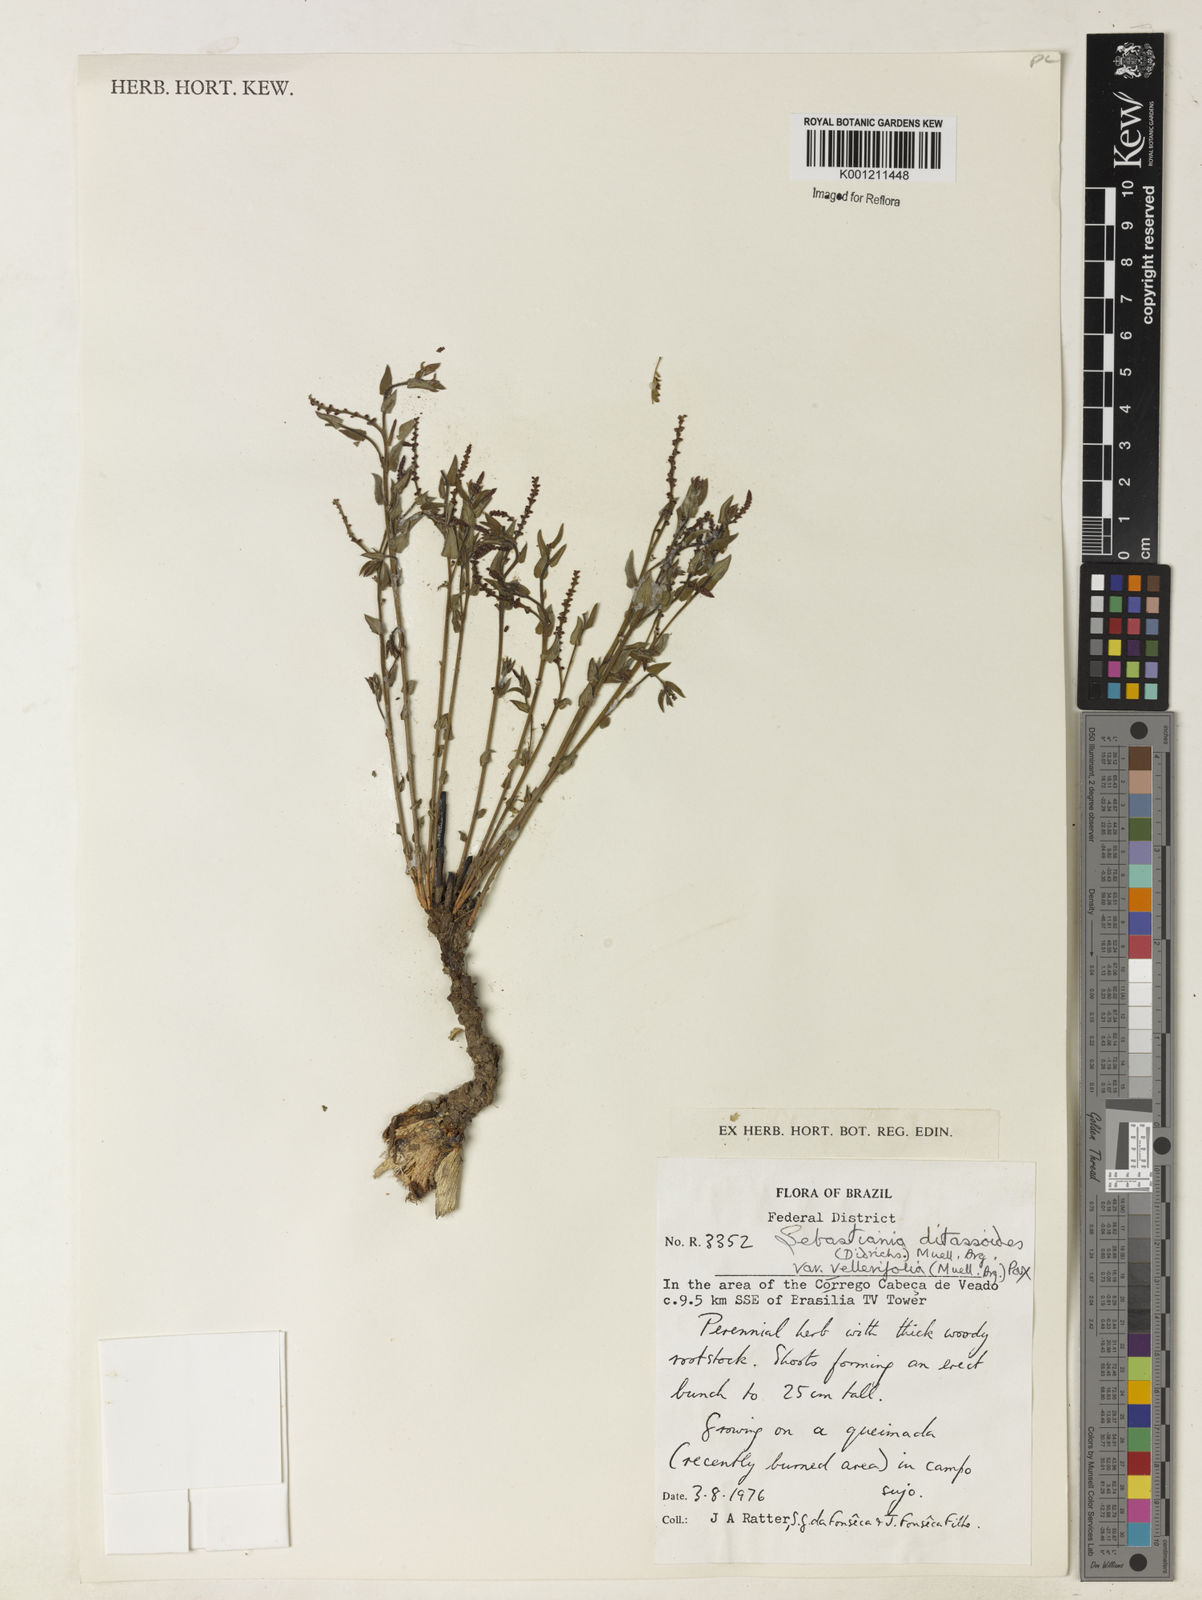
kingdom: Plantae
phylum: Tracheophyta
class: Magnoliopsida
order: Malpighiales
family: Euphorbiaceae
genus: Microstachys
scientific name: Microstachys ditassoides
